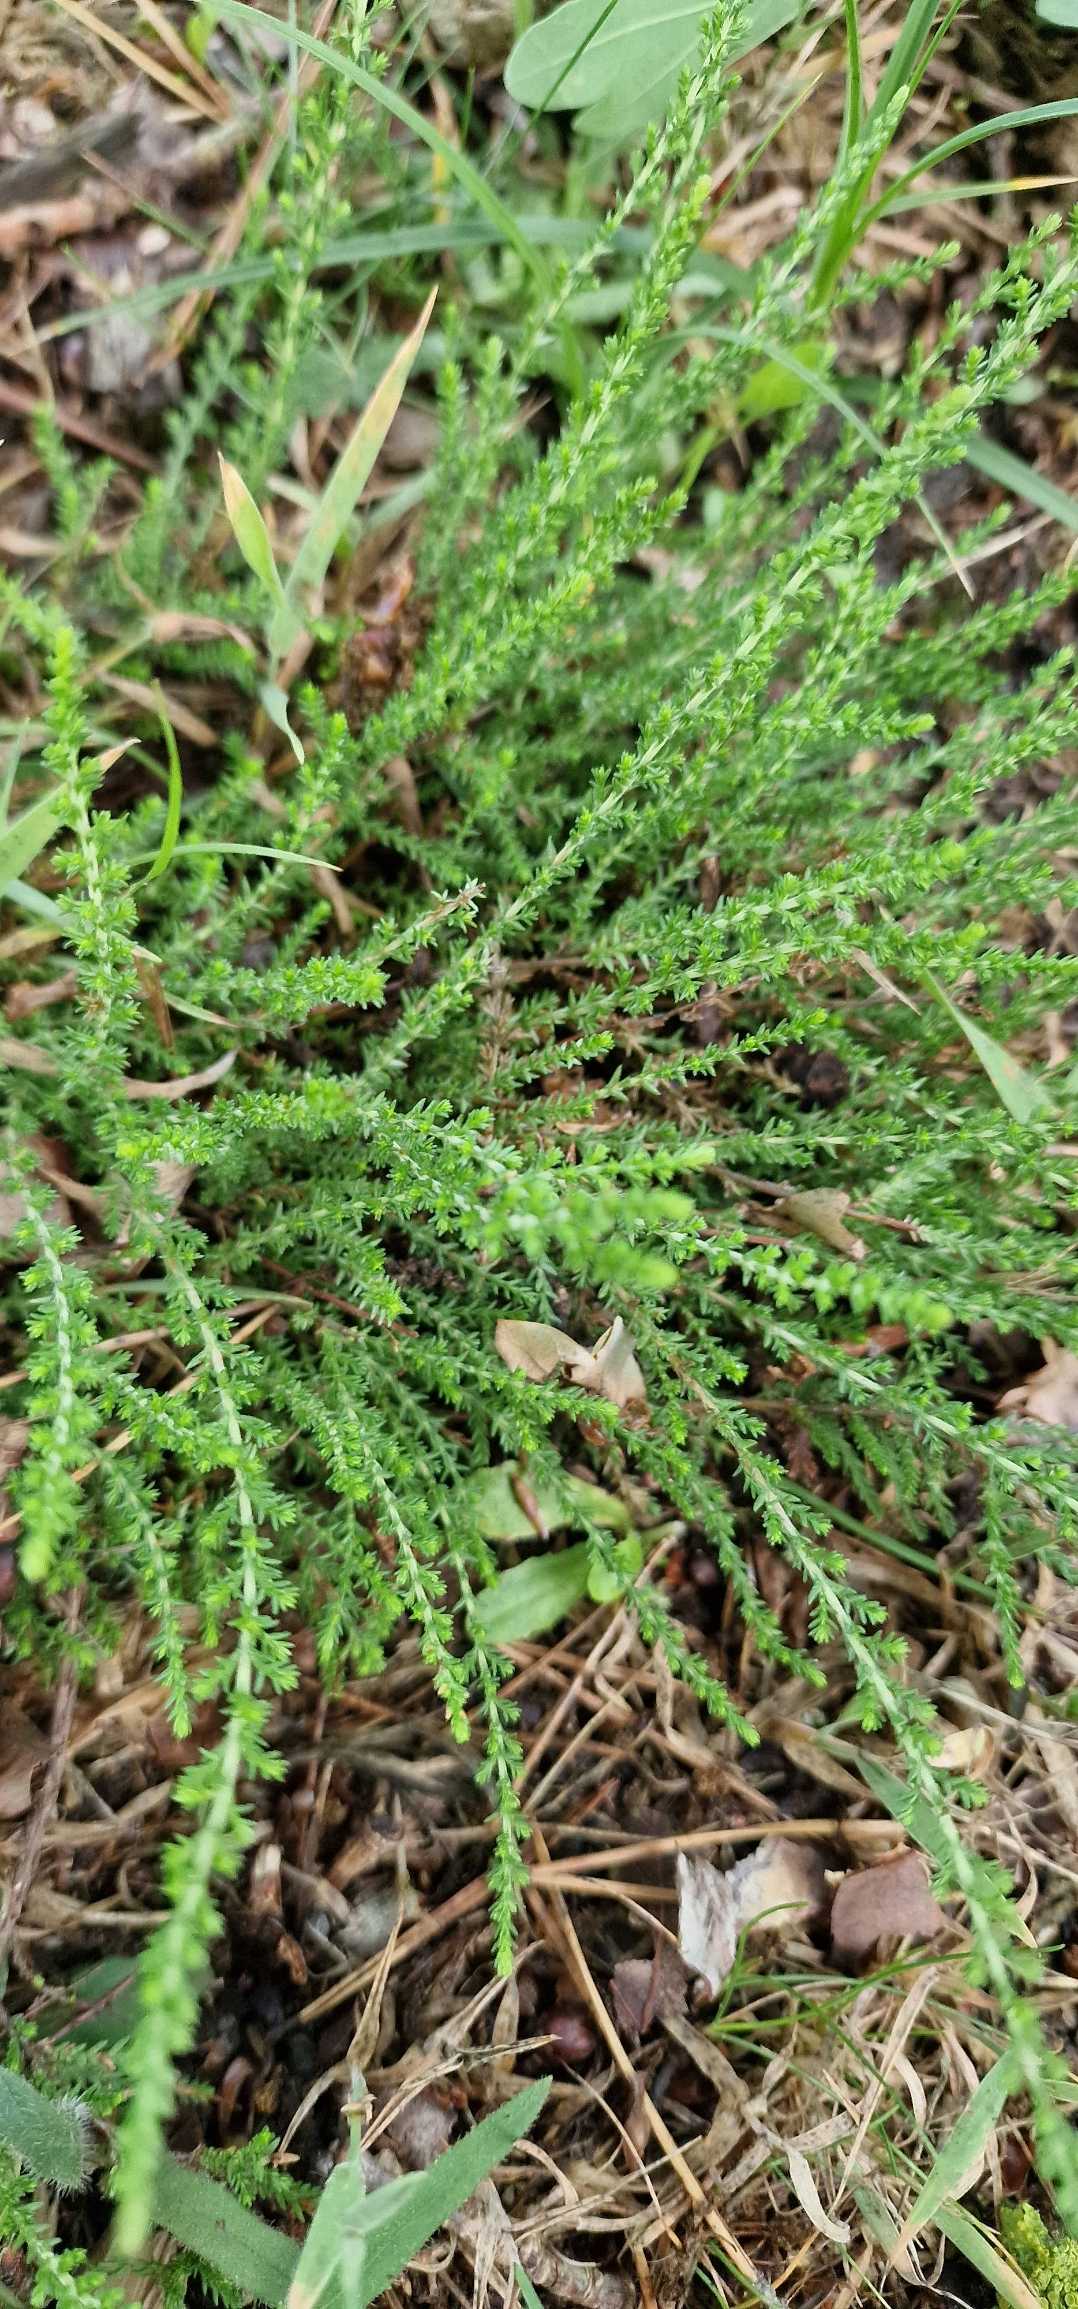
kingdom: Plantae
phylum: Tracheophyta
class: Magnoliopsida
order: Ericales
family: Ericaceae
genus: Calluna
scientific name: Calluna vulgaris
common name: Hedelyng
